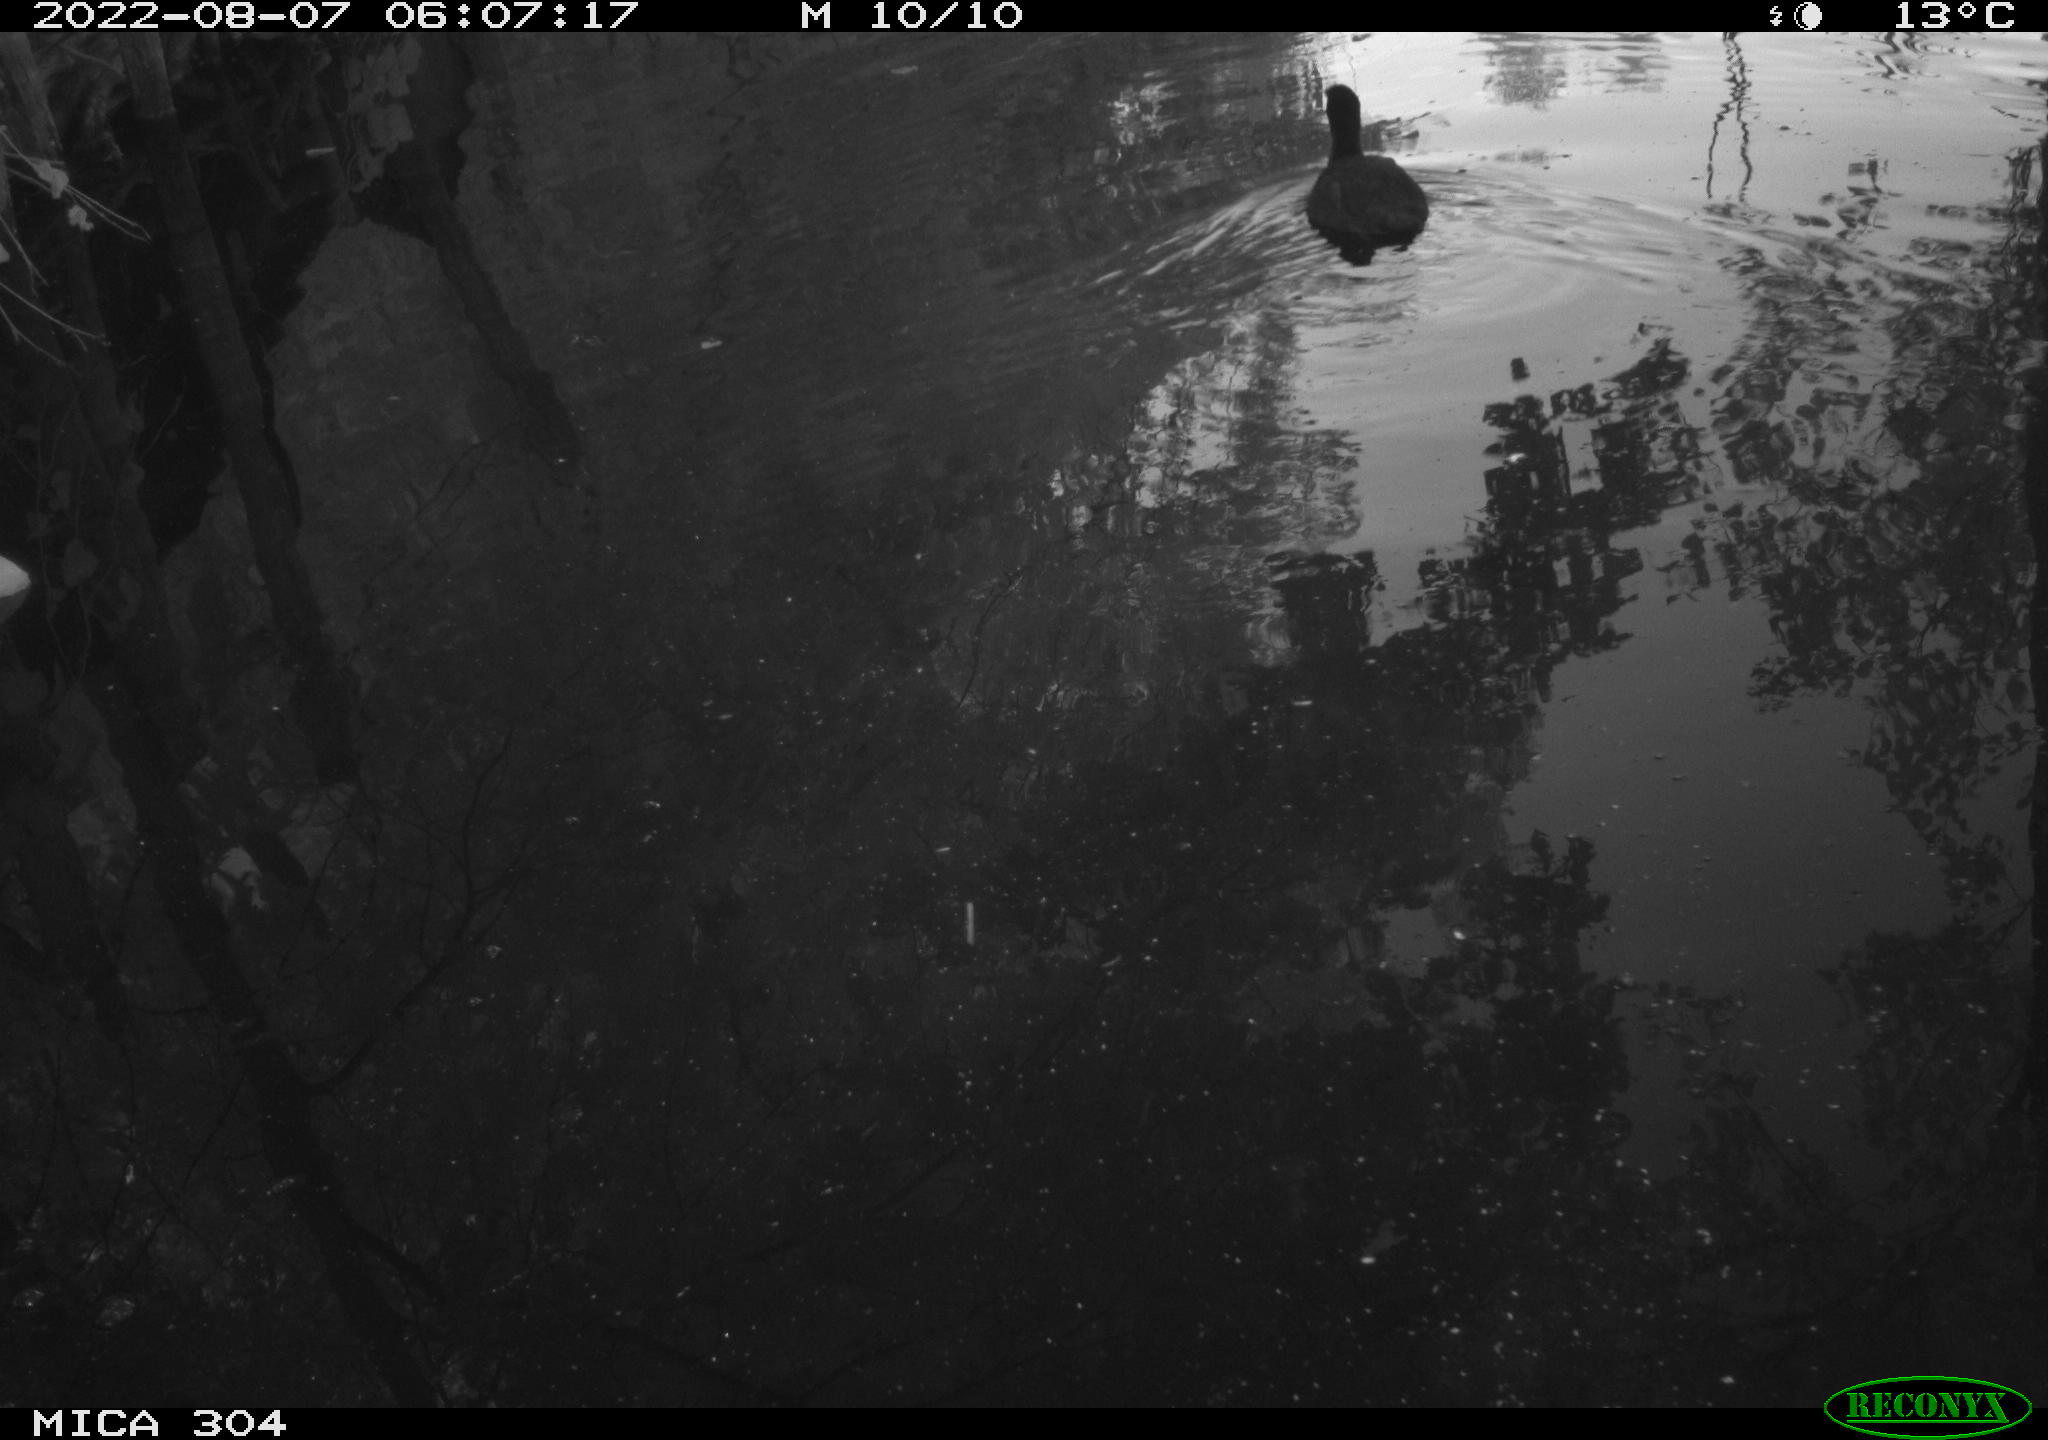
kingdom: Animalia
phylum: Chordata
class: Aves
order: Gruiformes
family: Rallidae
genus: Fulica
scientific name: Fulica atra
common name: Eurasian coot
